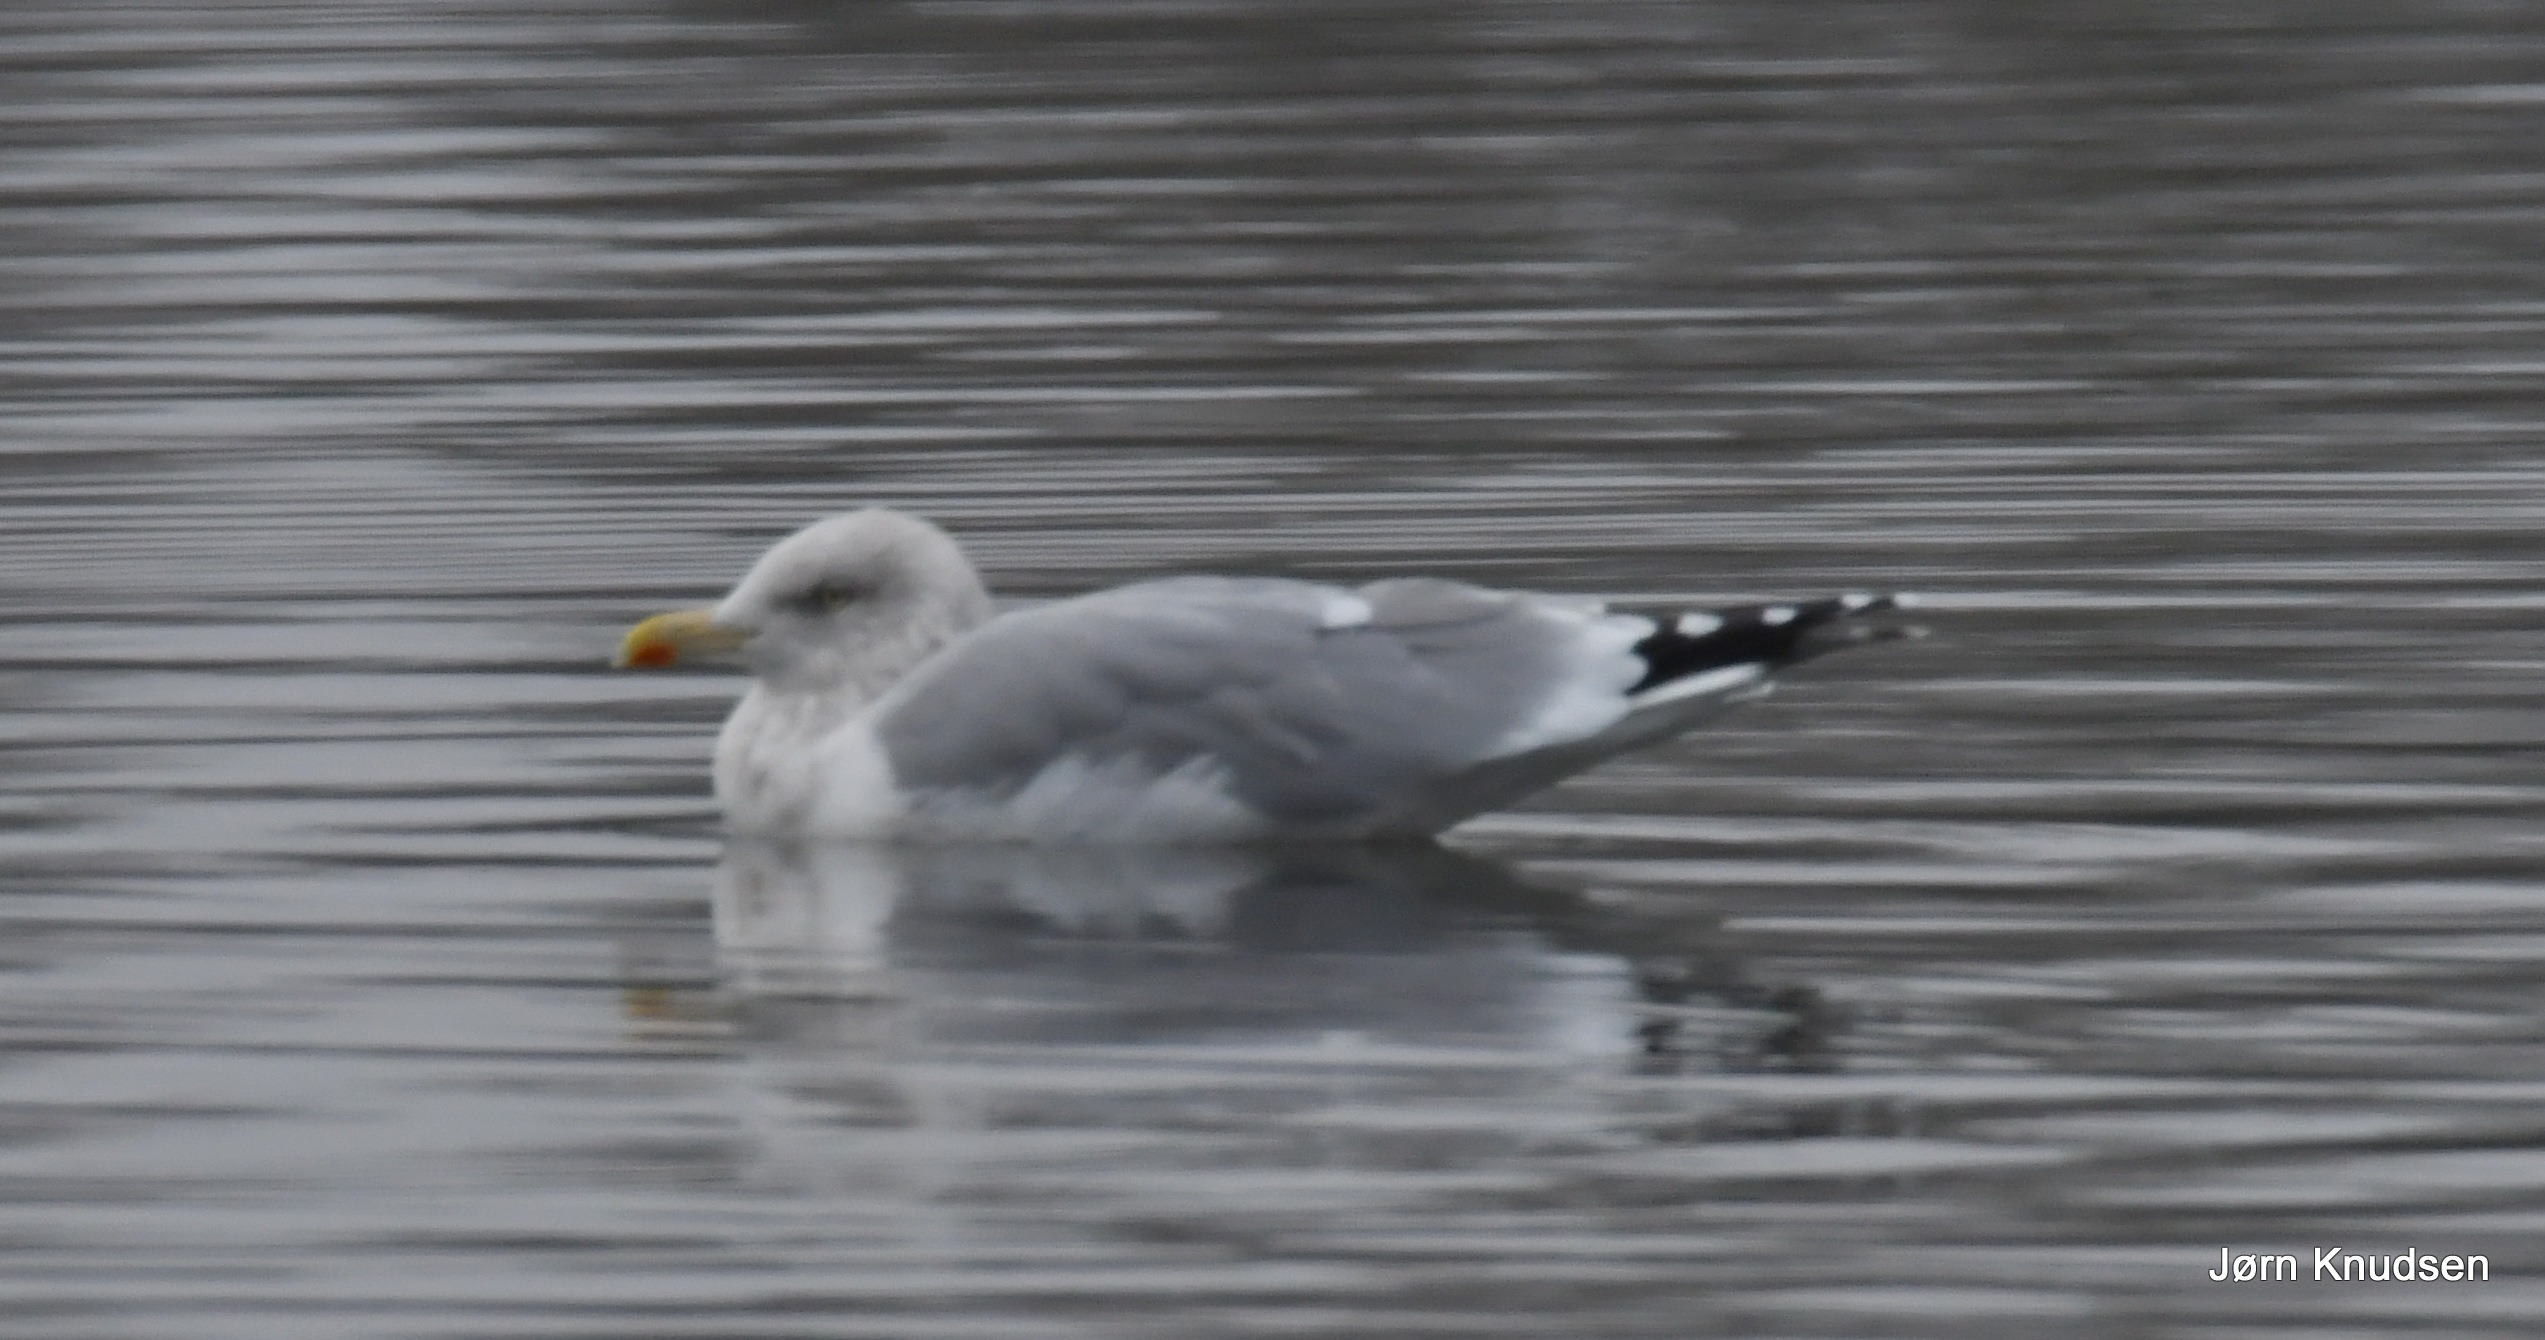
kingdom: Animalia
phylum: Chordata
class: Aves
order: Charadriiformes
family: Laridae
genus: Larus
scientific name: Larus argentatus
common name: Sølvmåge
